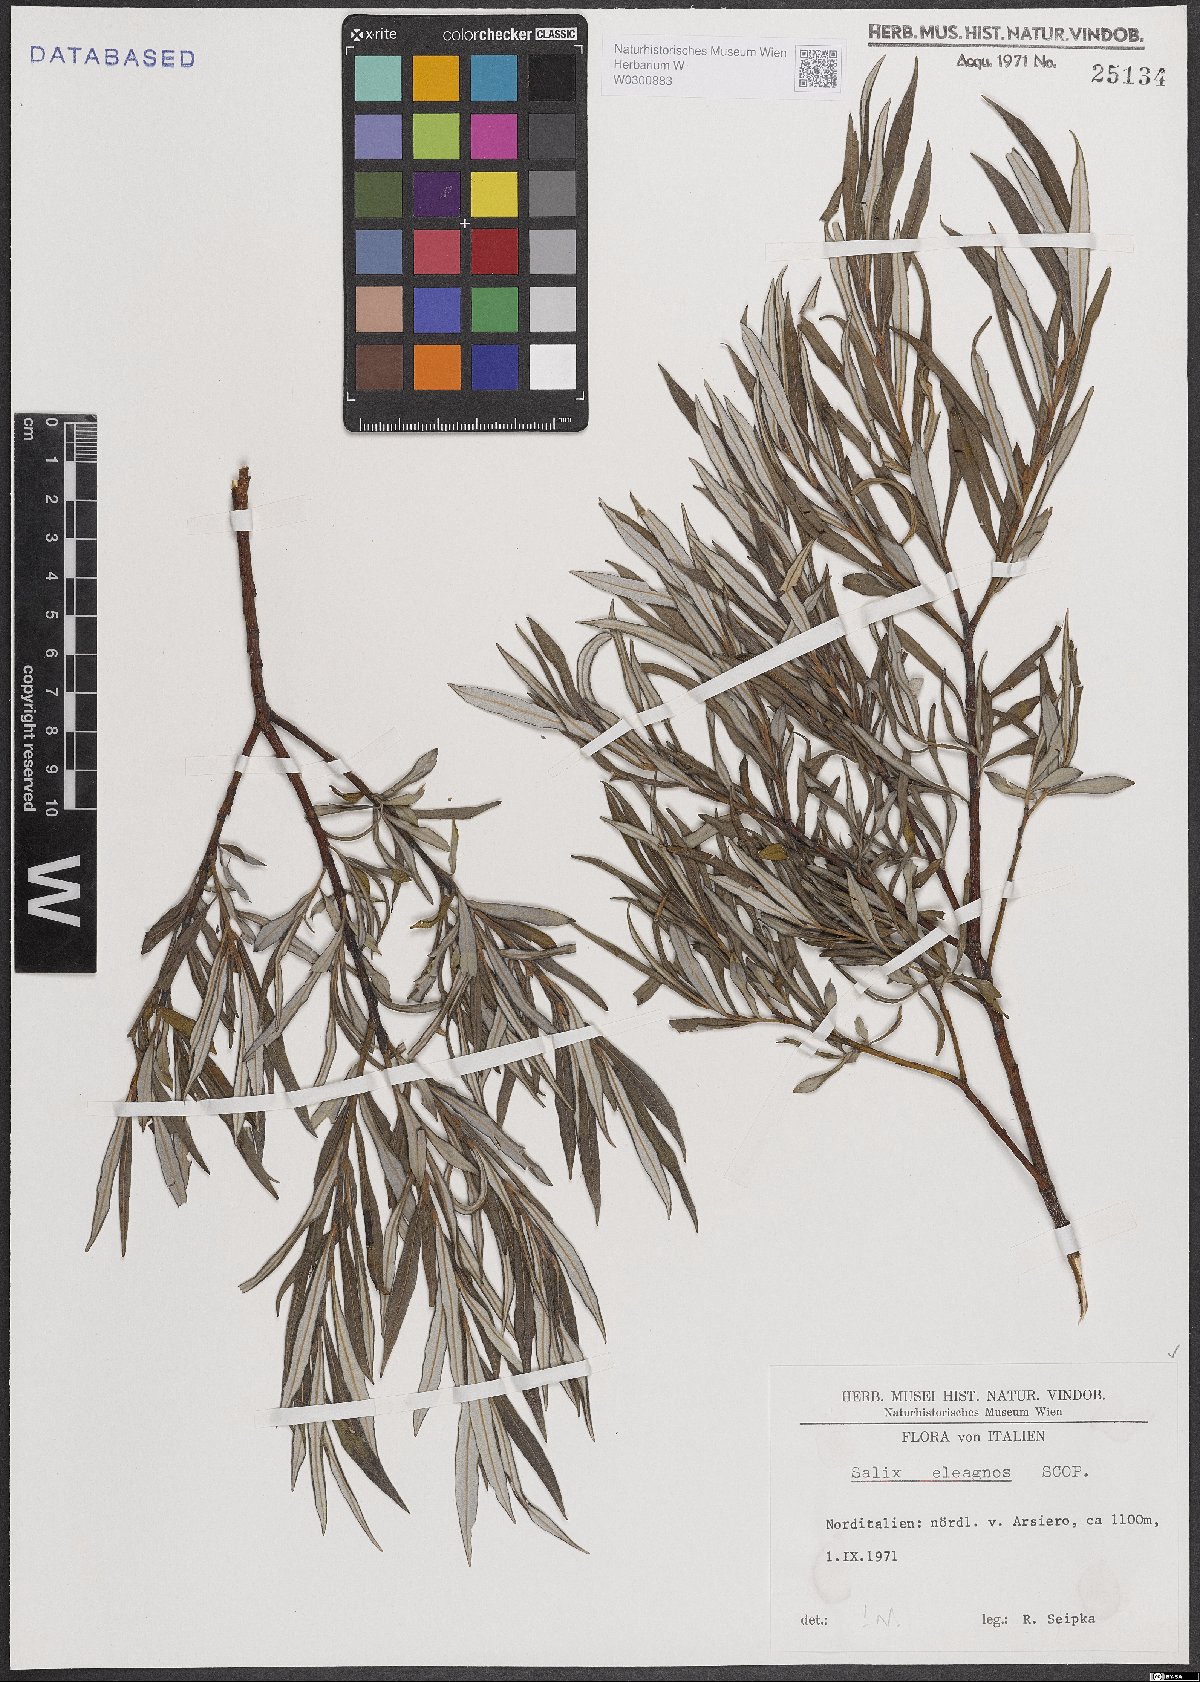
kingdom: Plantae
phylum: Tracheophyta
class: Magnoliopsida
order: Malpighiales
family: Salicaceae
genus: Salix
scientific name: Salix eleagnos
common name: Elaeagnus willow
